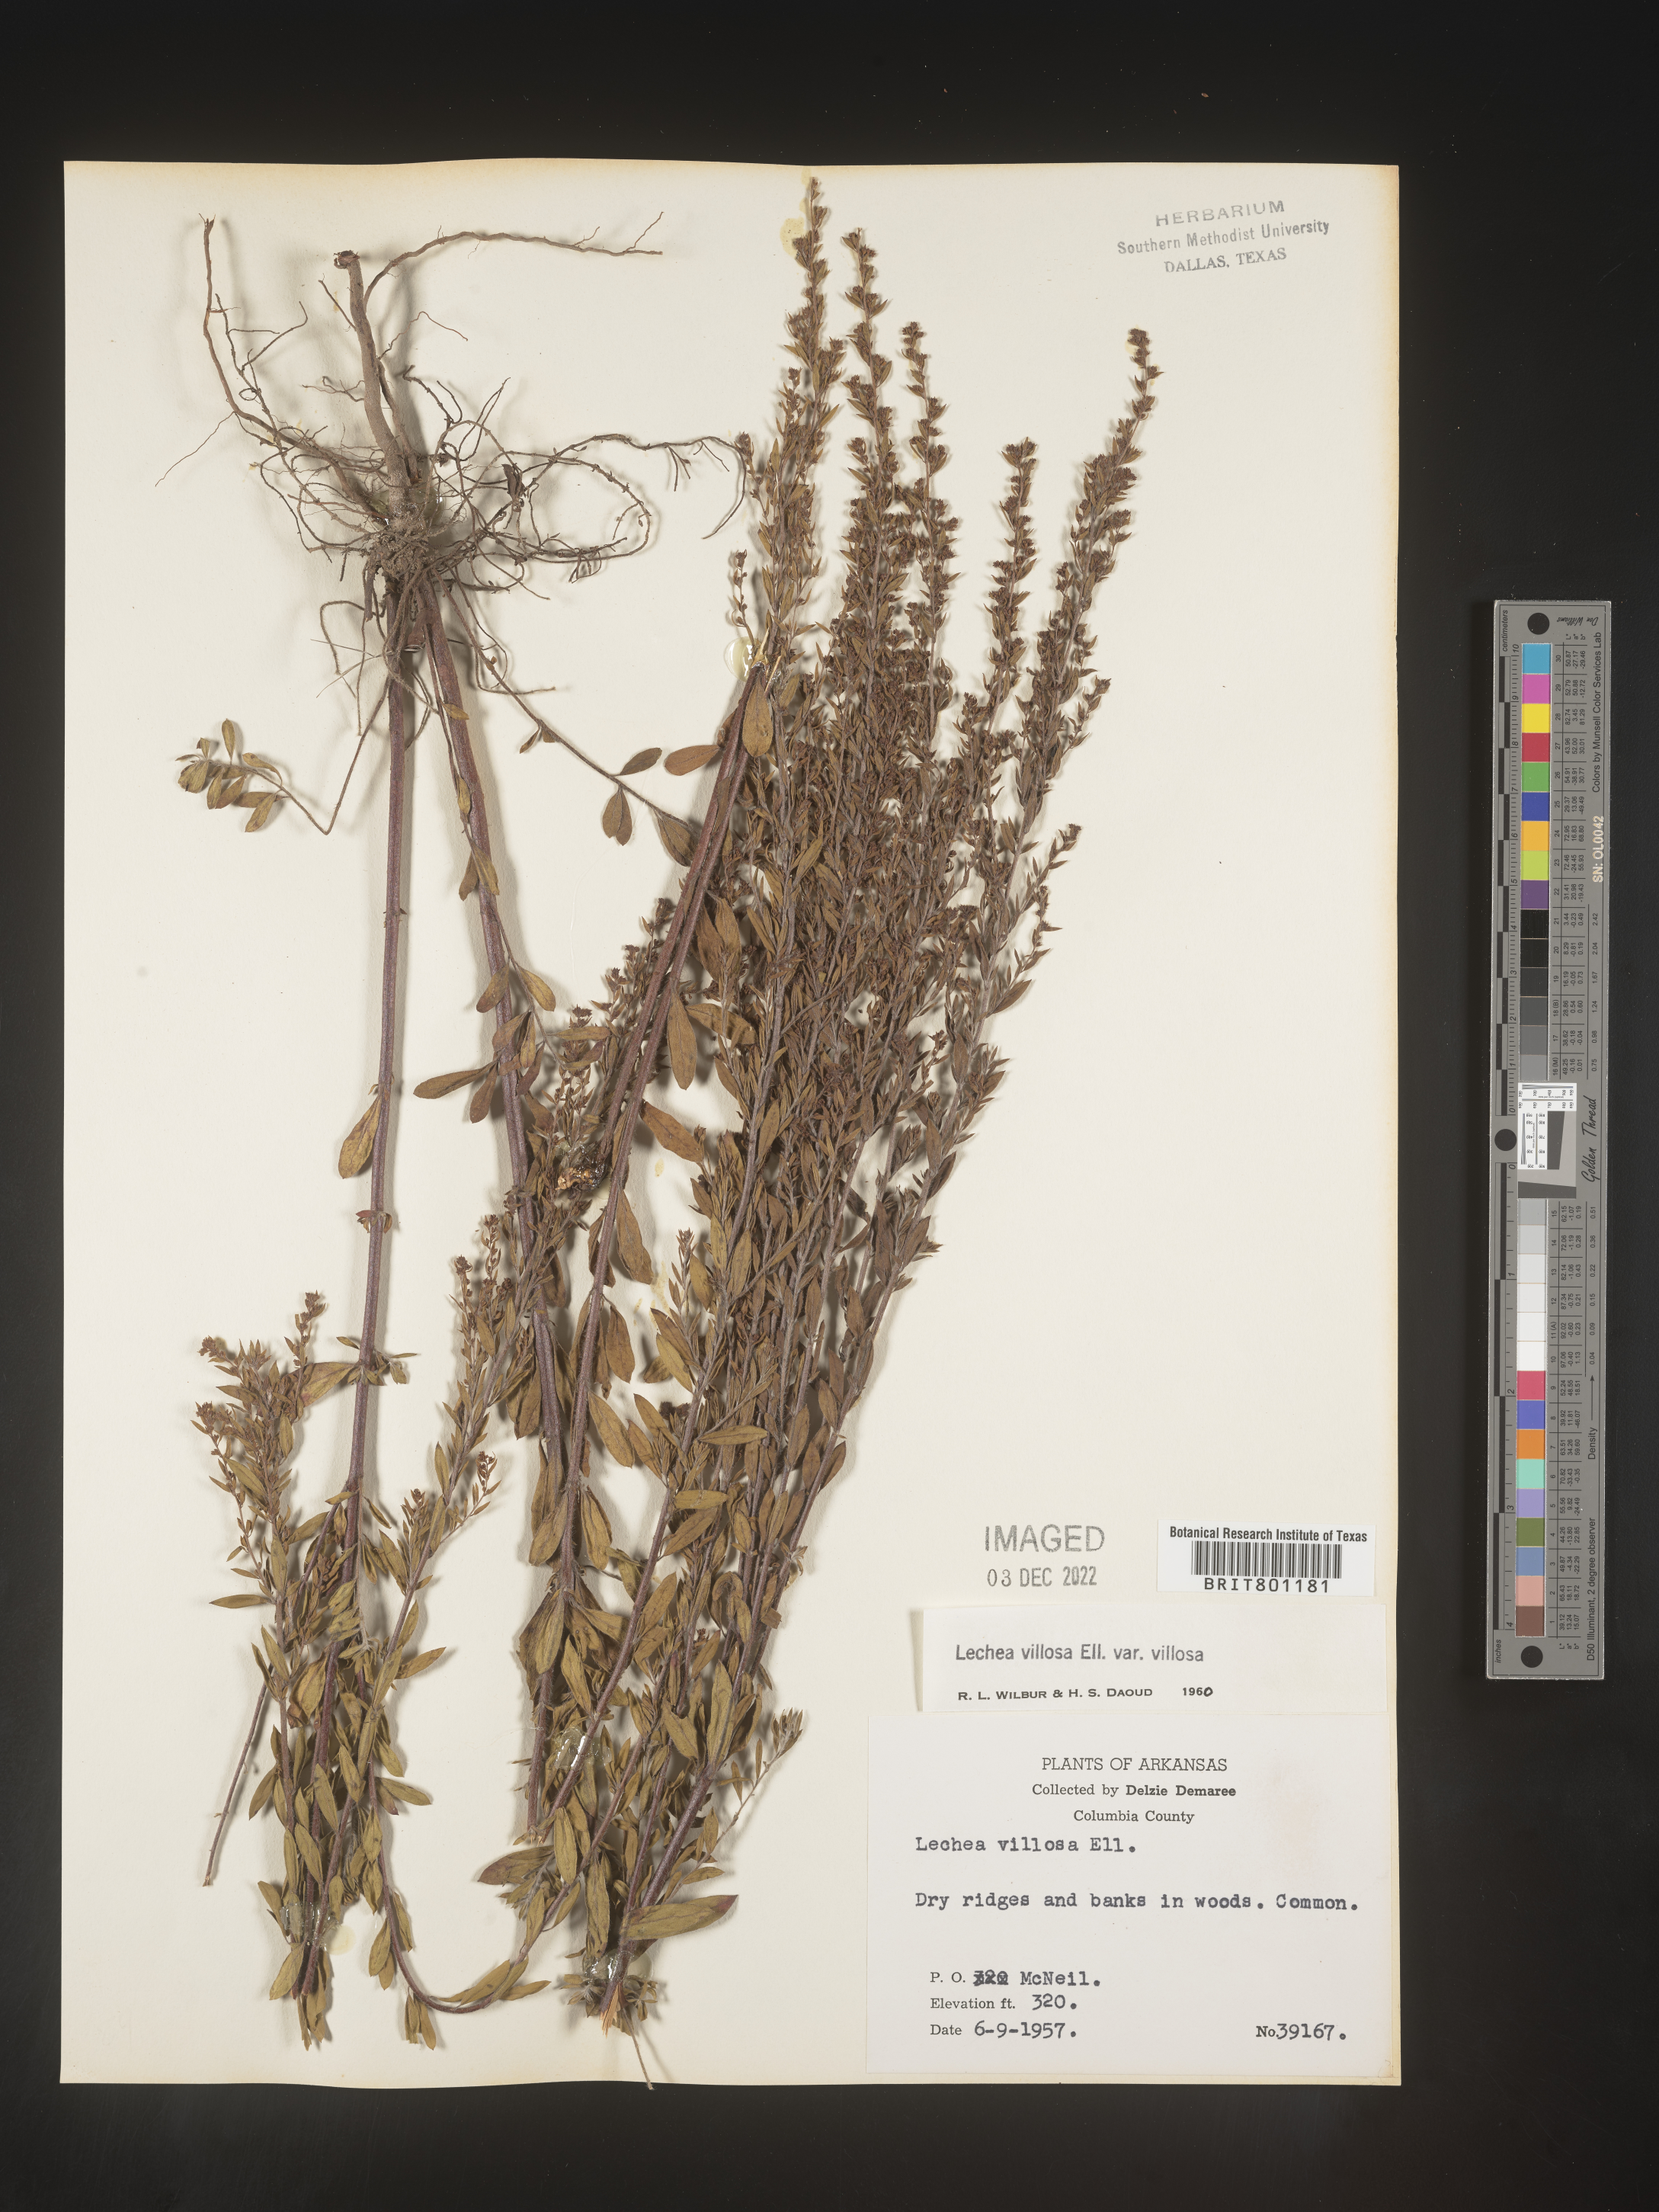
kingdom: Plantae
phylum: Tracheophyta
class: Magnoliopsida
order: Malvales
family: Cistaceae
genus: Lechea
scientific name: Lechea mucronata
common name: Hairy pinweed
